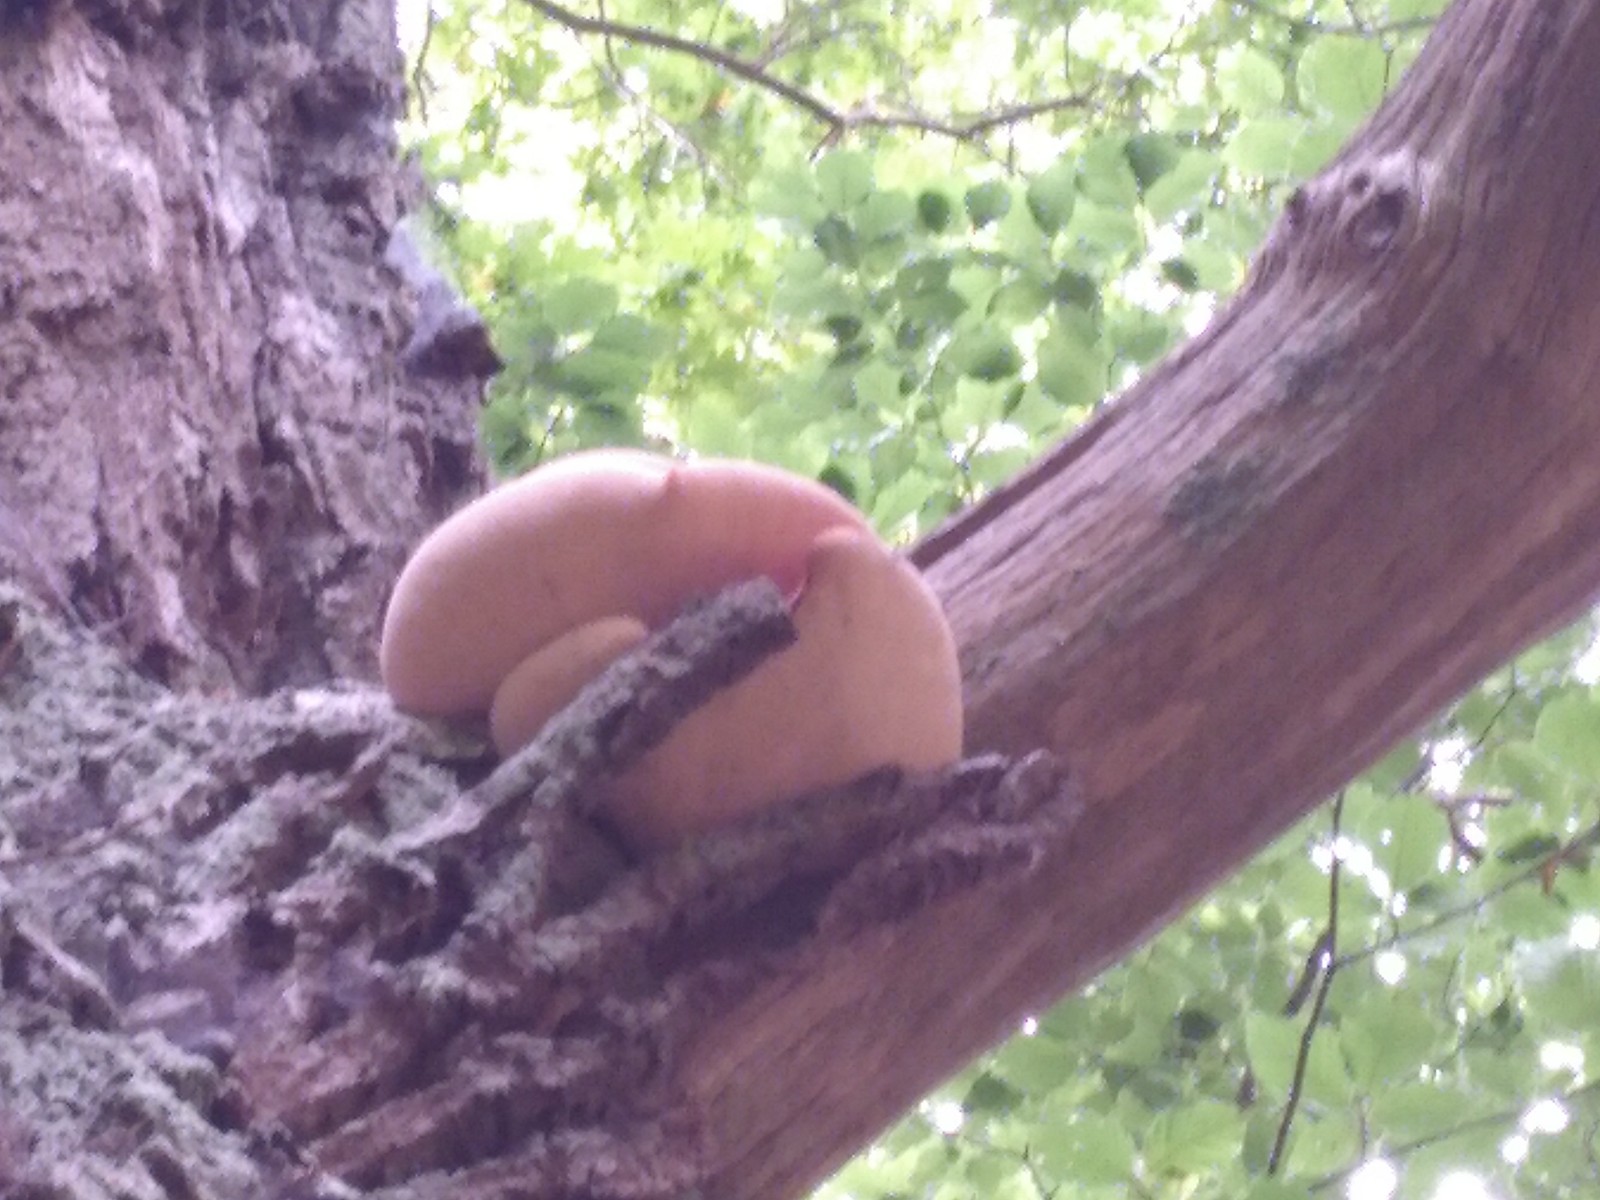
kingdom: Fungi
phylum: Basidiomycota
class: Agaricomycetes
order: Polyporales
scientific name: Polyporales
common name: poresvampordenen
